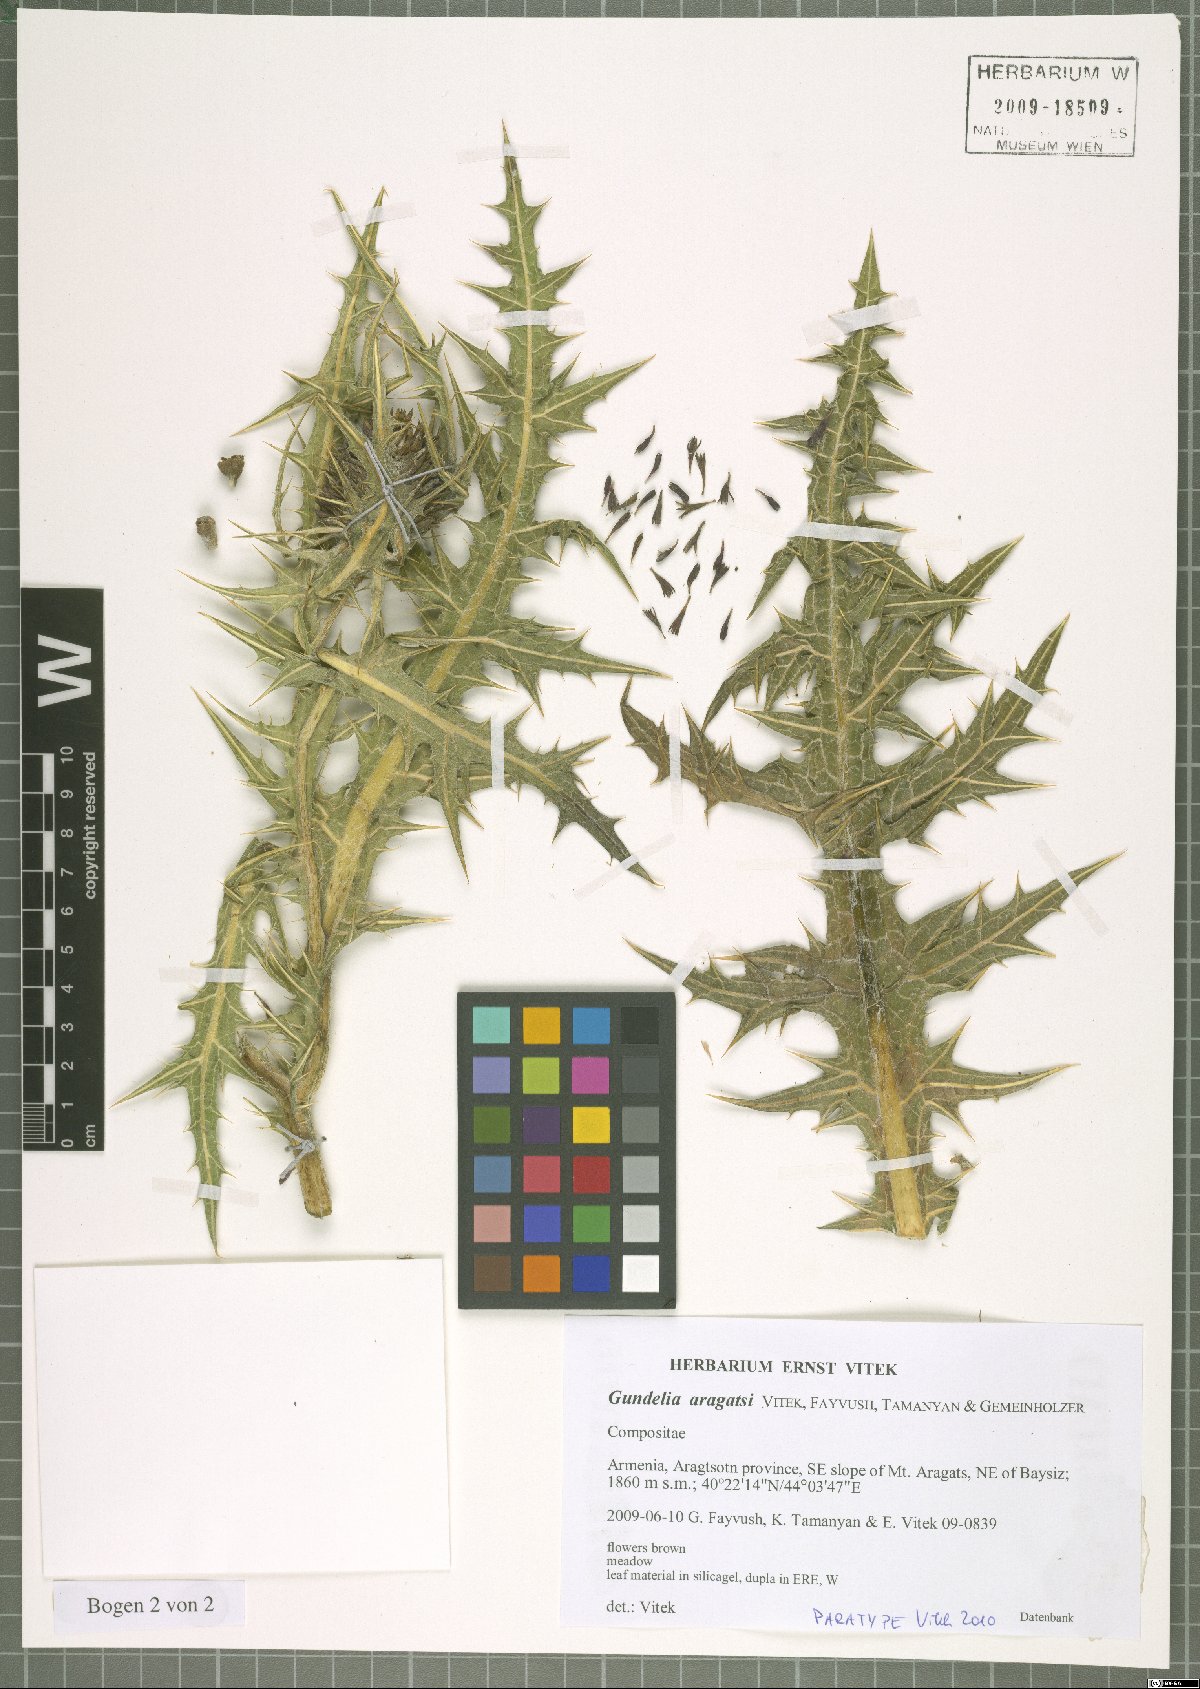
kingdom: Plantae
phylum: Tracheophyta
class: Magnoliopsida
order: Asterales
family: Asteraceae
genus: Gundelia
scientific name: Gundelia aragatsi
